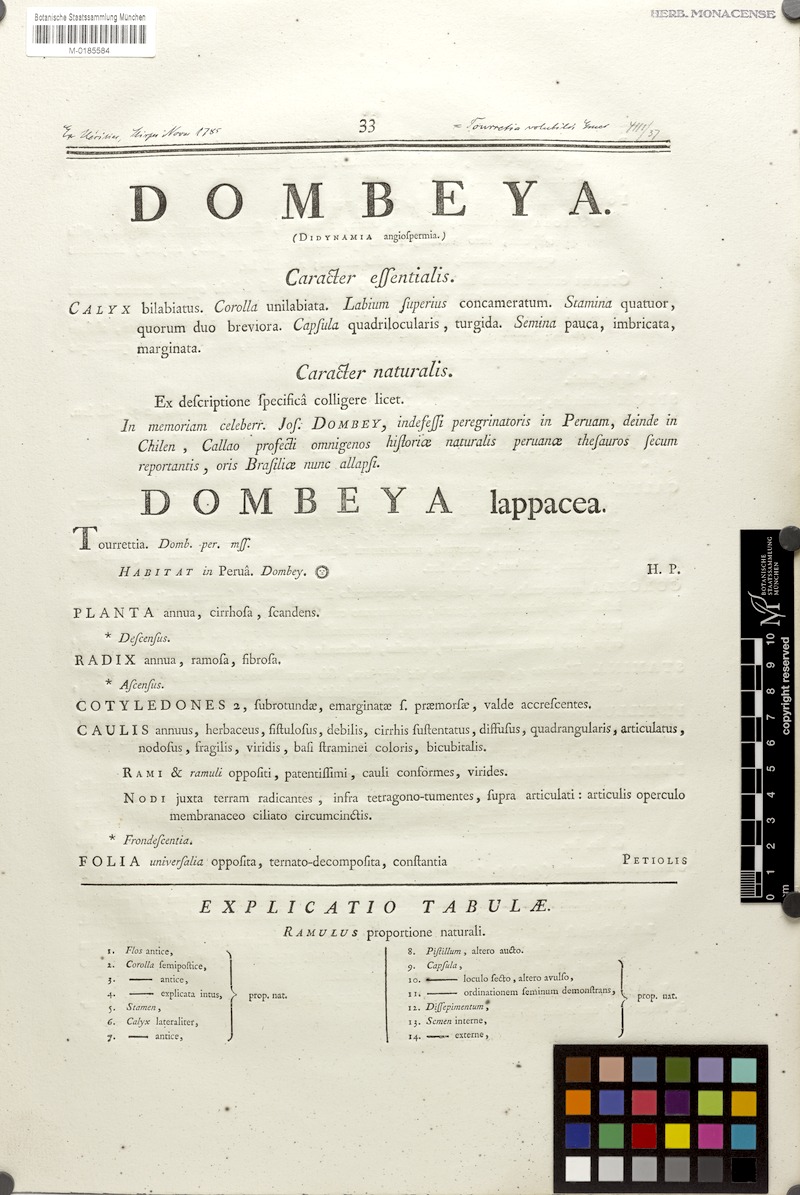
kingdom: Plantae
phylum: Tracheophyta
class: Magnoliopsida
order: Lamiales
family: Bignoniaceae
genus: Tourrettia
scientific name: Tourrettia lappacea
